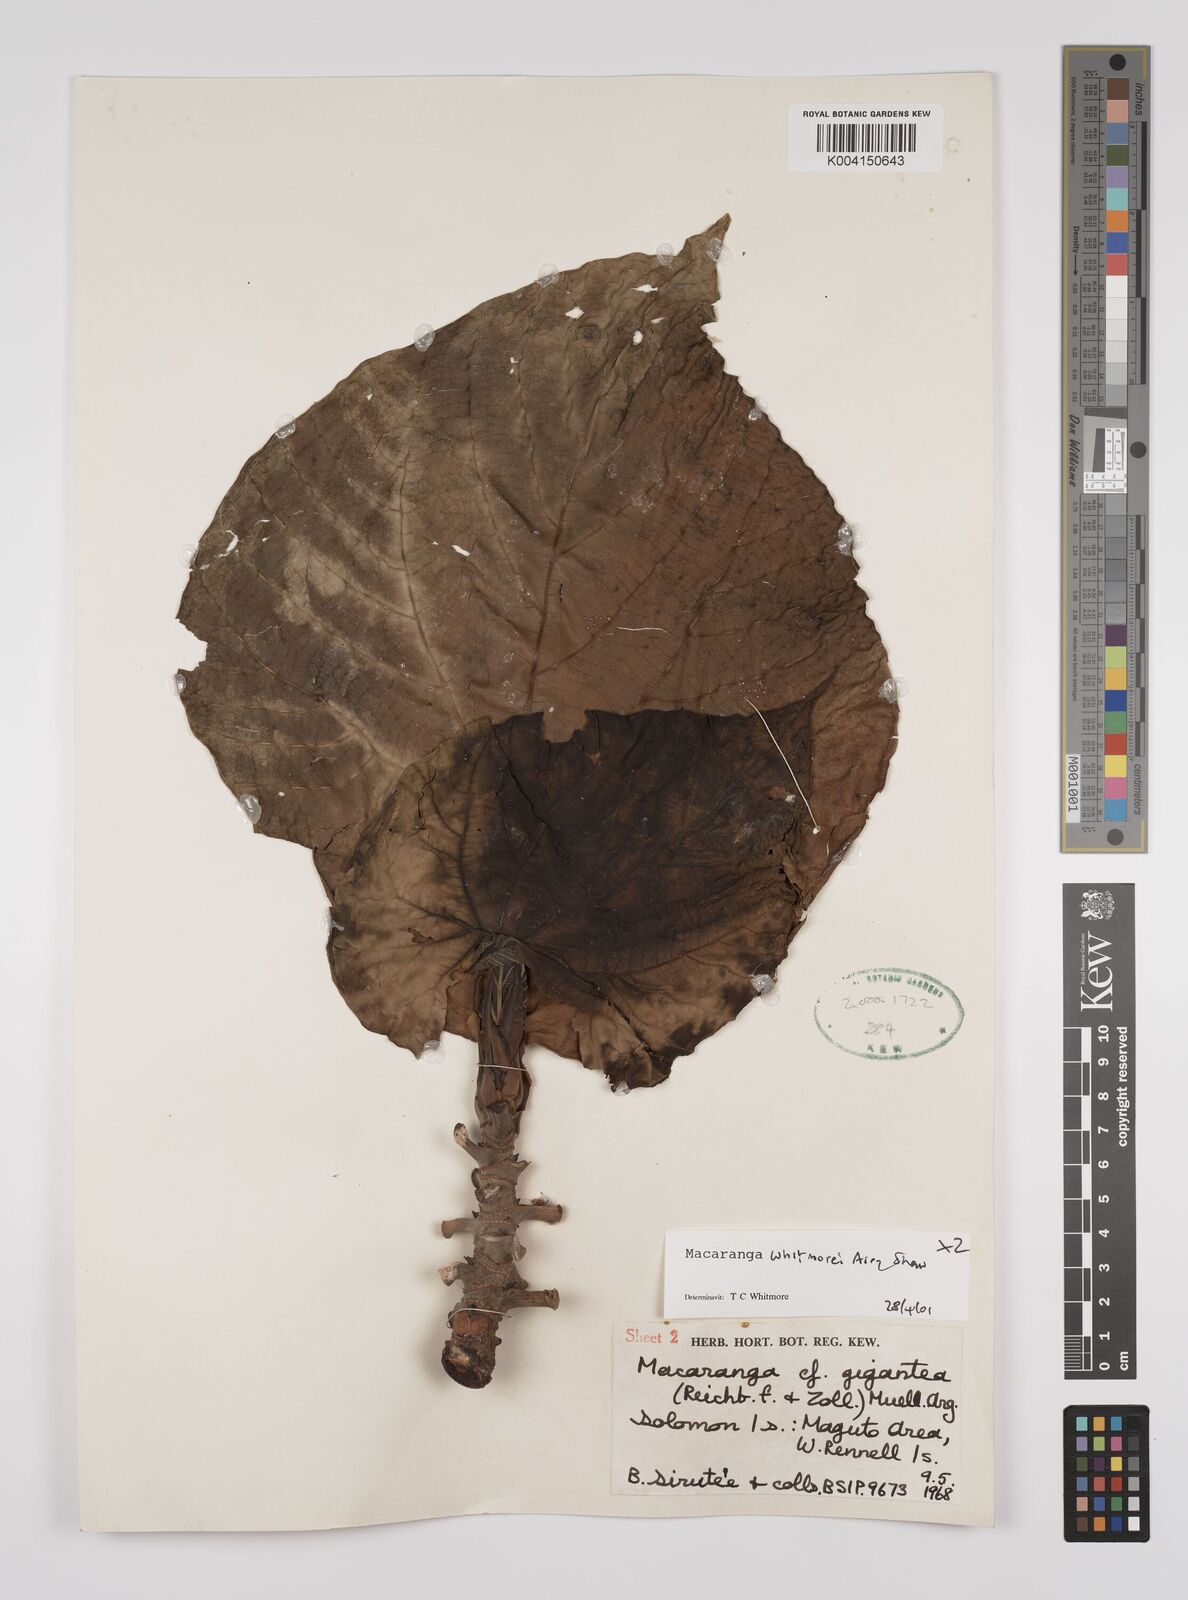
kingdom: Plantae
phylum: Tracheophyta
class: Magnoliopsida
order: Malpighiales
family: Euphorbiaceae
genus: Macaranga
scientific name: Macaranga whitmorei
